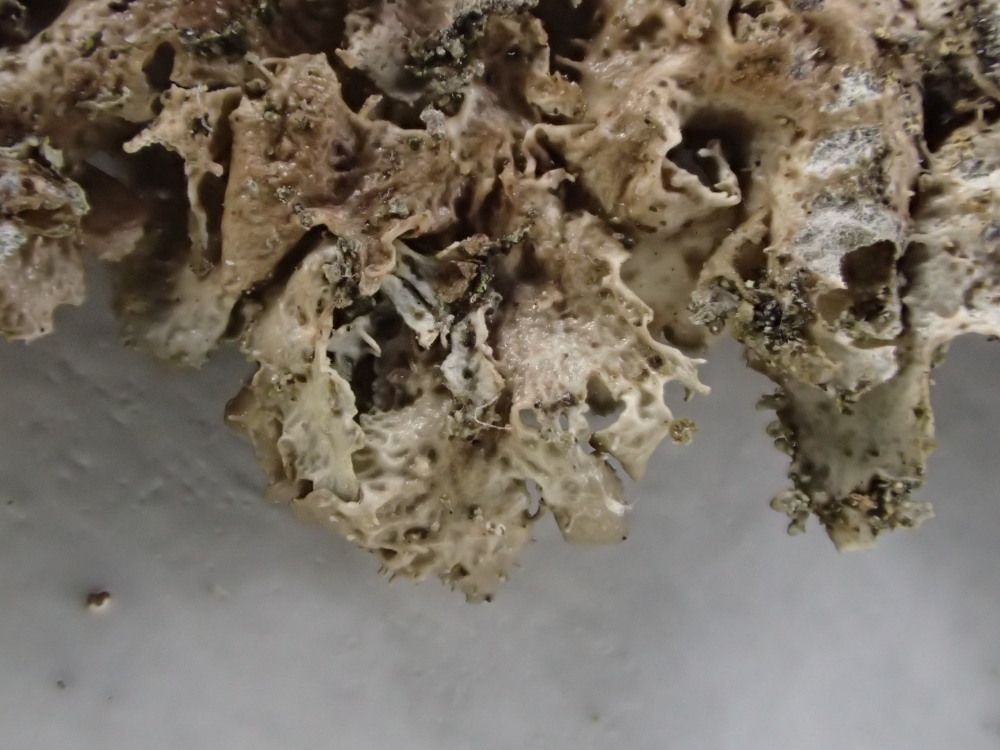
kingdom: Fungi
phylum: Ascomycota
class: Lecanoromycetes
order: Lecanorales
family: Parmeliaceae
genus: Melanohalea
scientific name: Melanohalea exasperatula
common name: kølle-skållav
